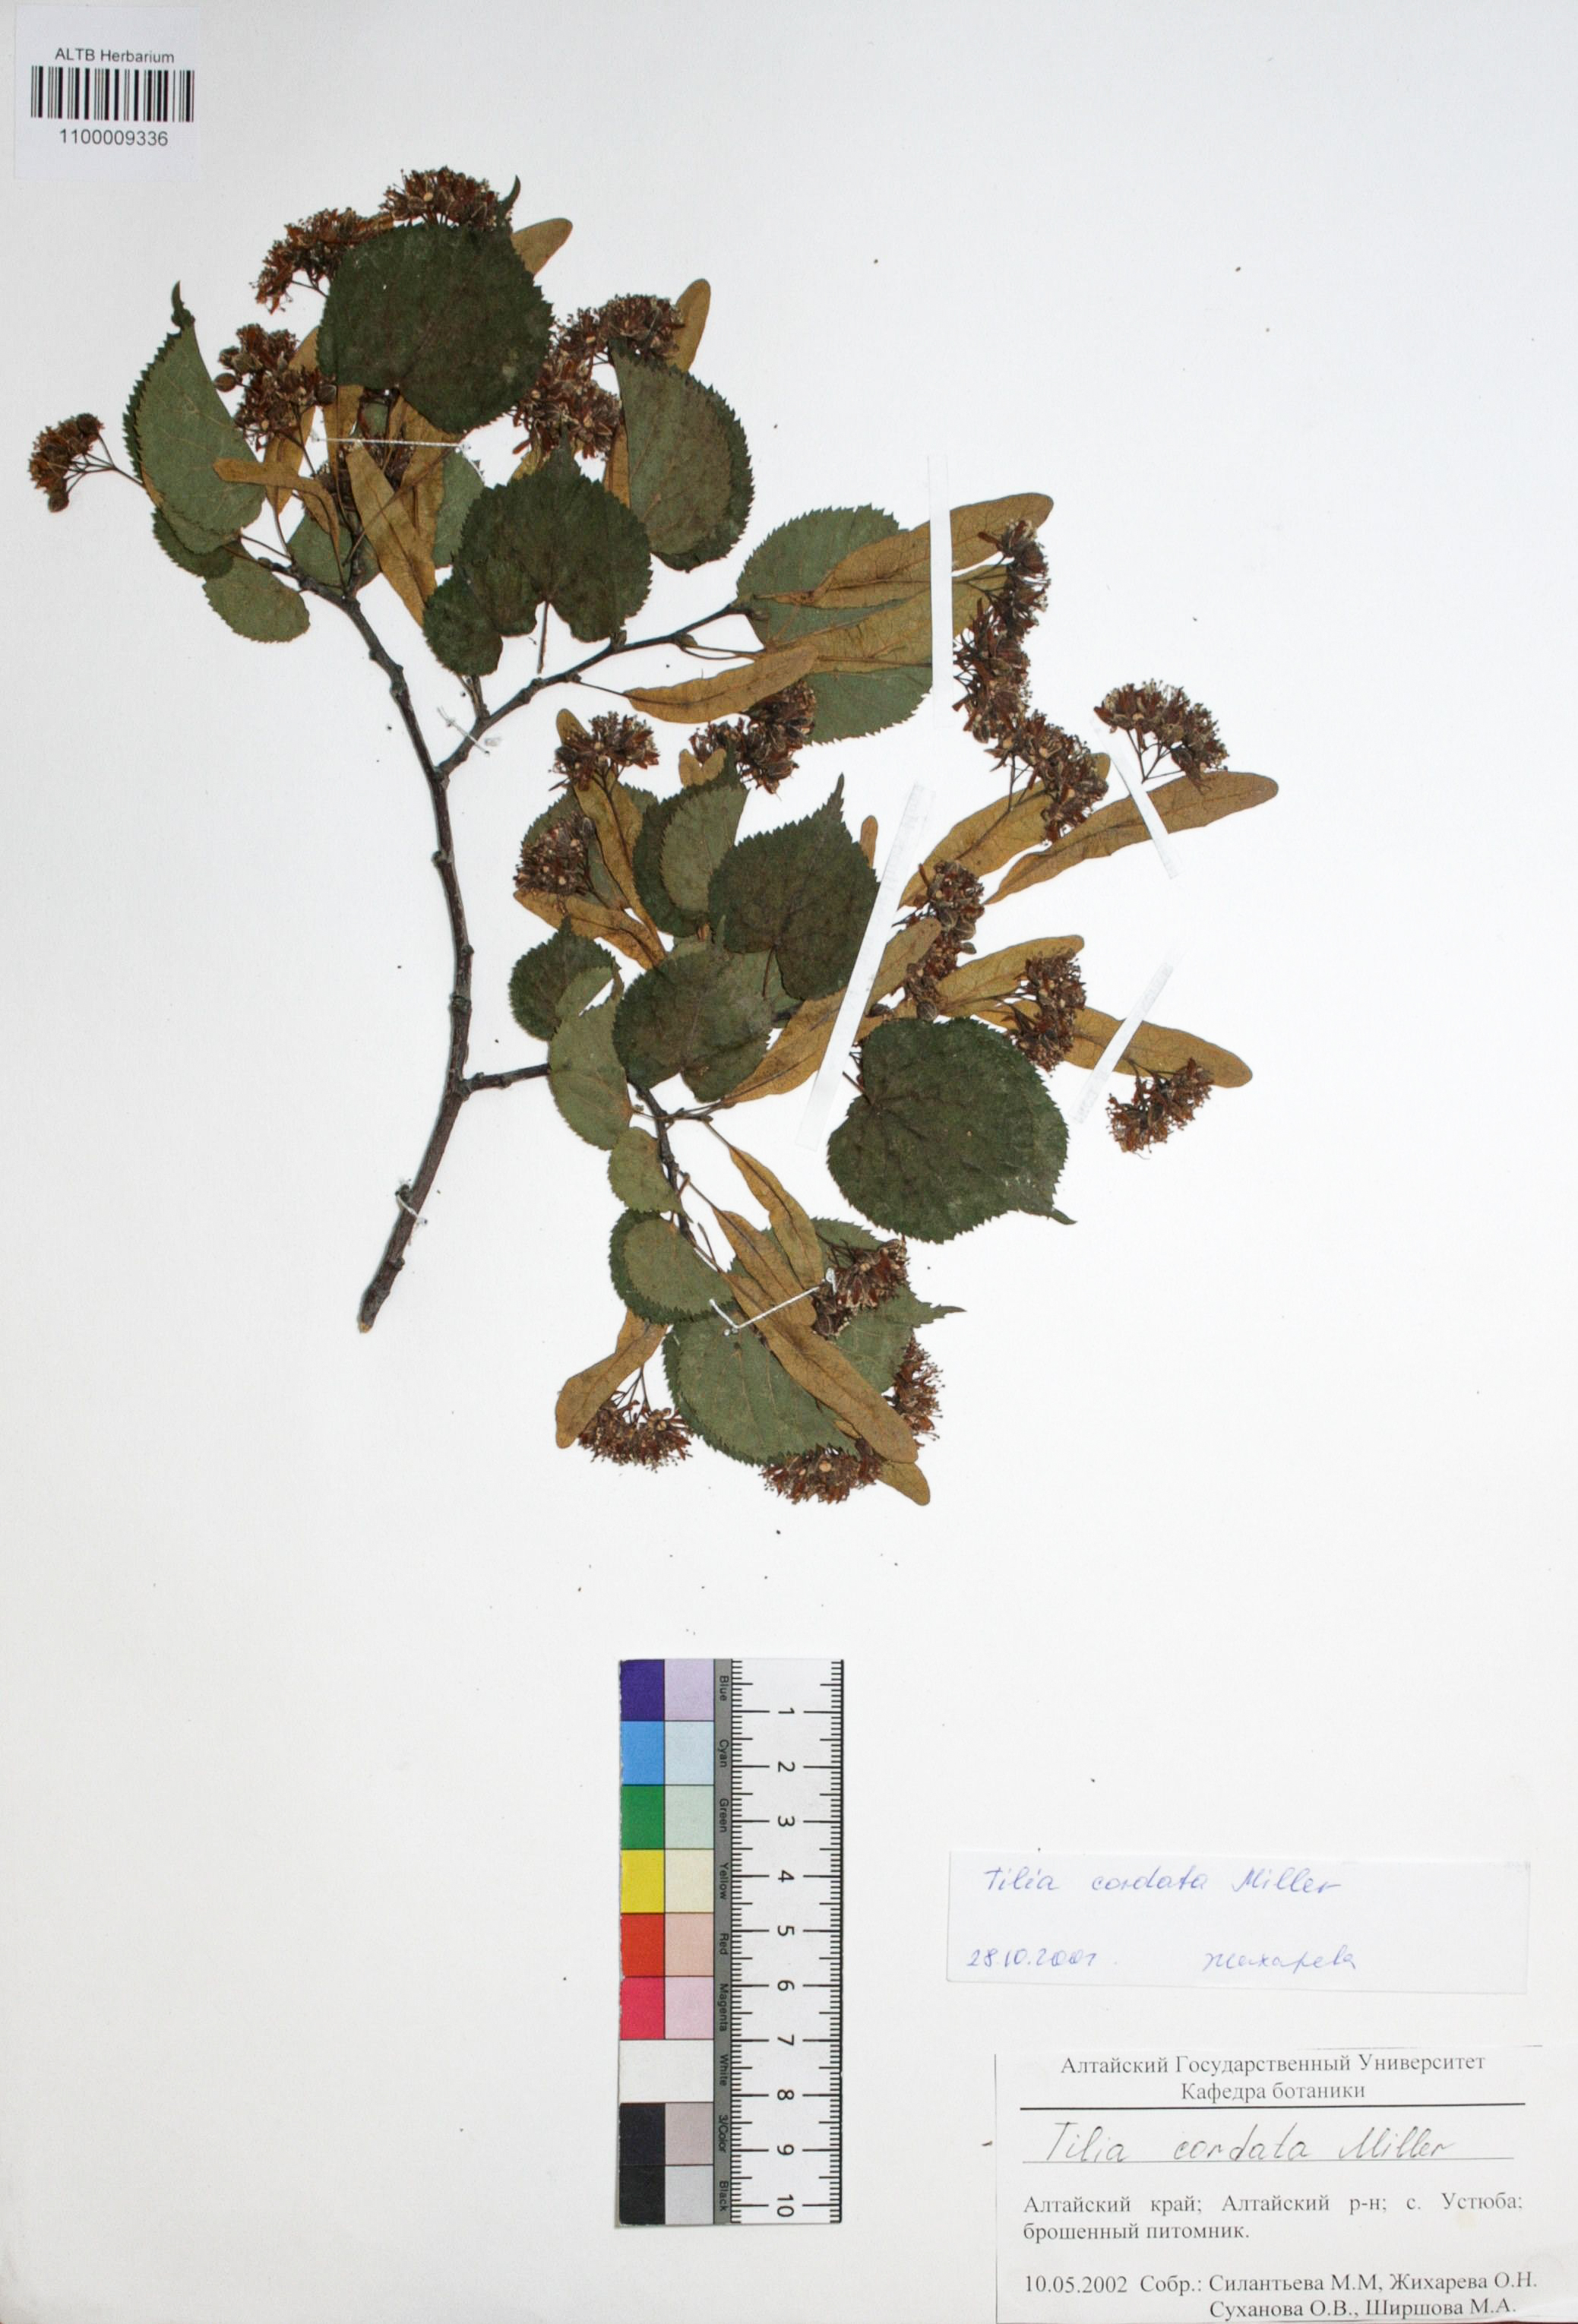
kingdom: Plantae
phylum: Tracheophyta
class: Magnoliopsida
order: Malvales
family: Malvaceae
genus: Tilia
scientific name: Tilia cordata
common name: Small-leaved lime
